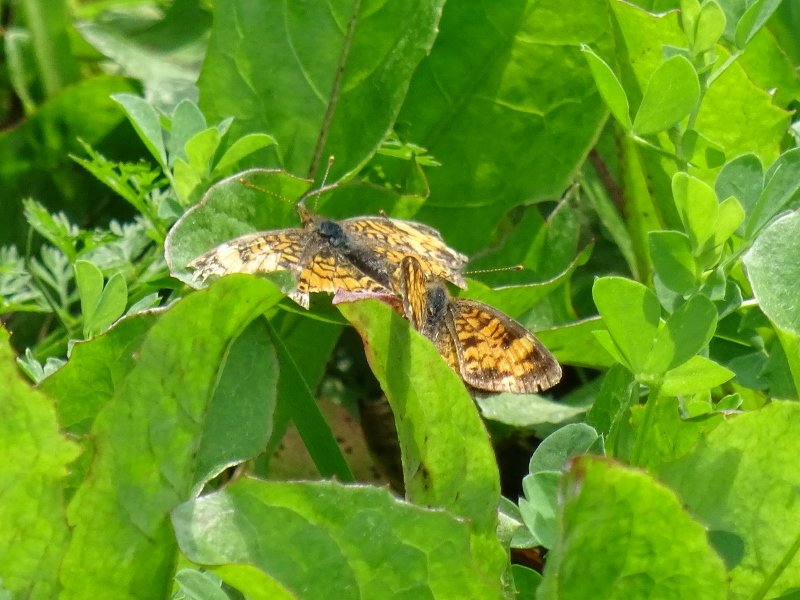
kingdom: Animalia
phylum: Arthropoda
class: Insecta
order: Lepidoptera
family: Nymphalidae
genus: Phyciodes
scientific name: Phyciodes tharos
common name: Northern Crescent
